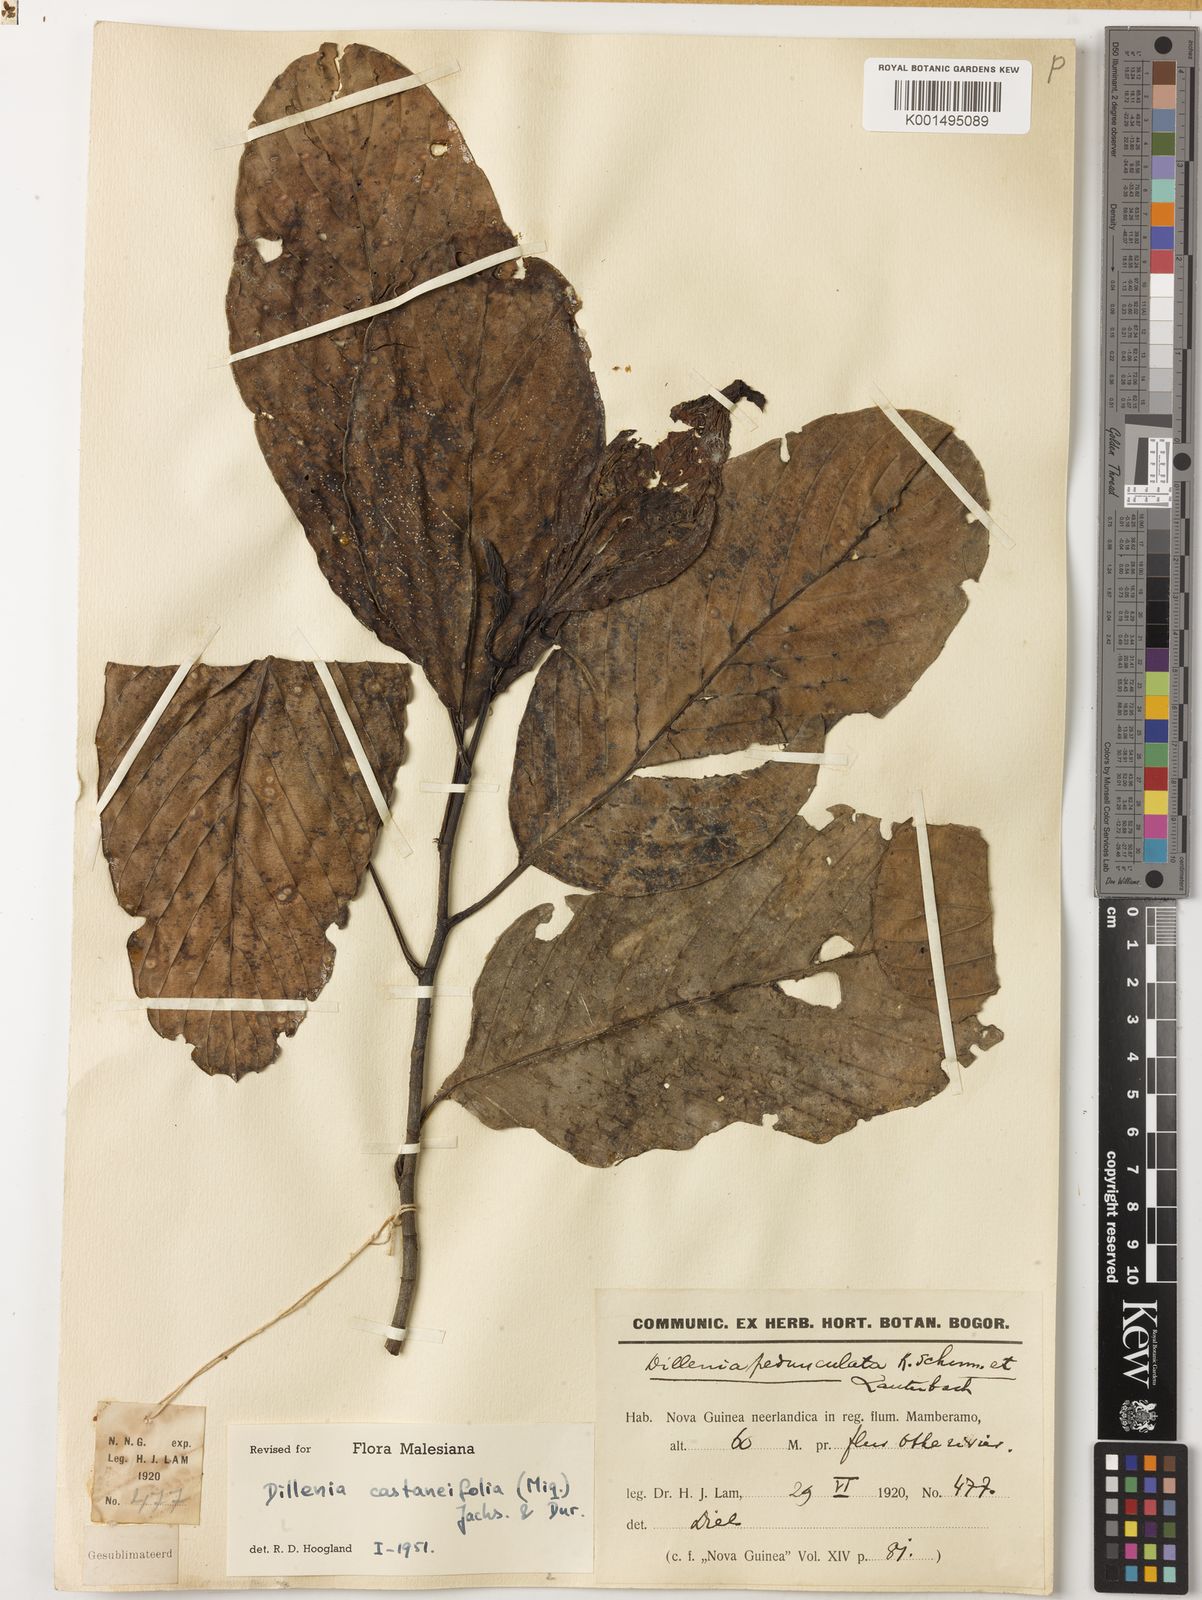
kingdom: Plantae
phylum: Tracheophyta
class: Magnoliopsida
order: Dilleniales
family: Dilleniaceae
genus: Dillenia
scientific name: Dillenia castaneifolia
